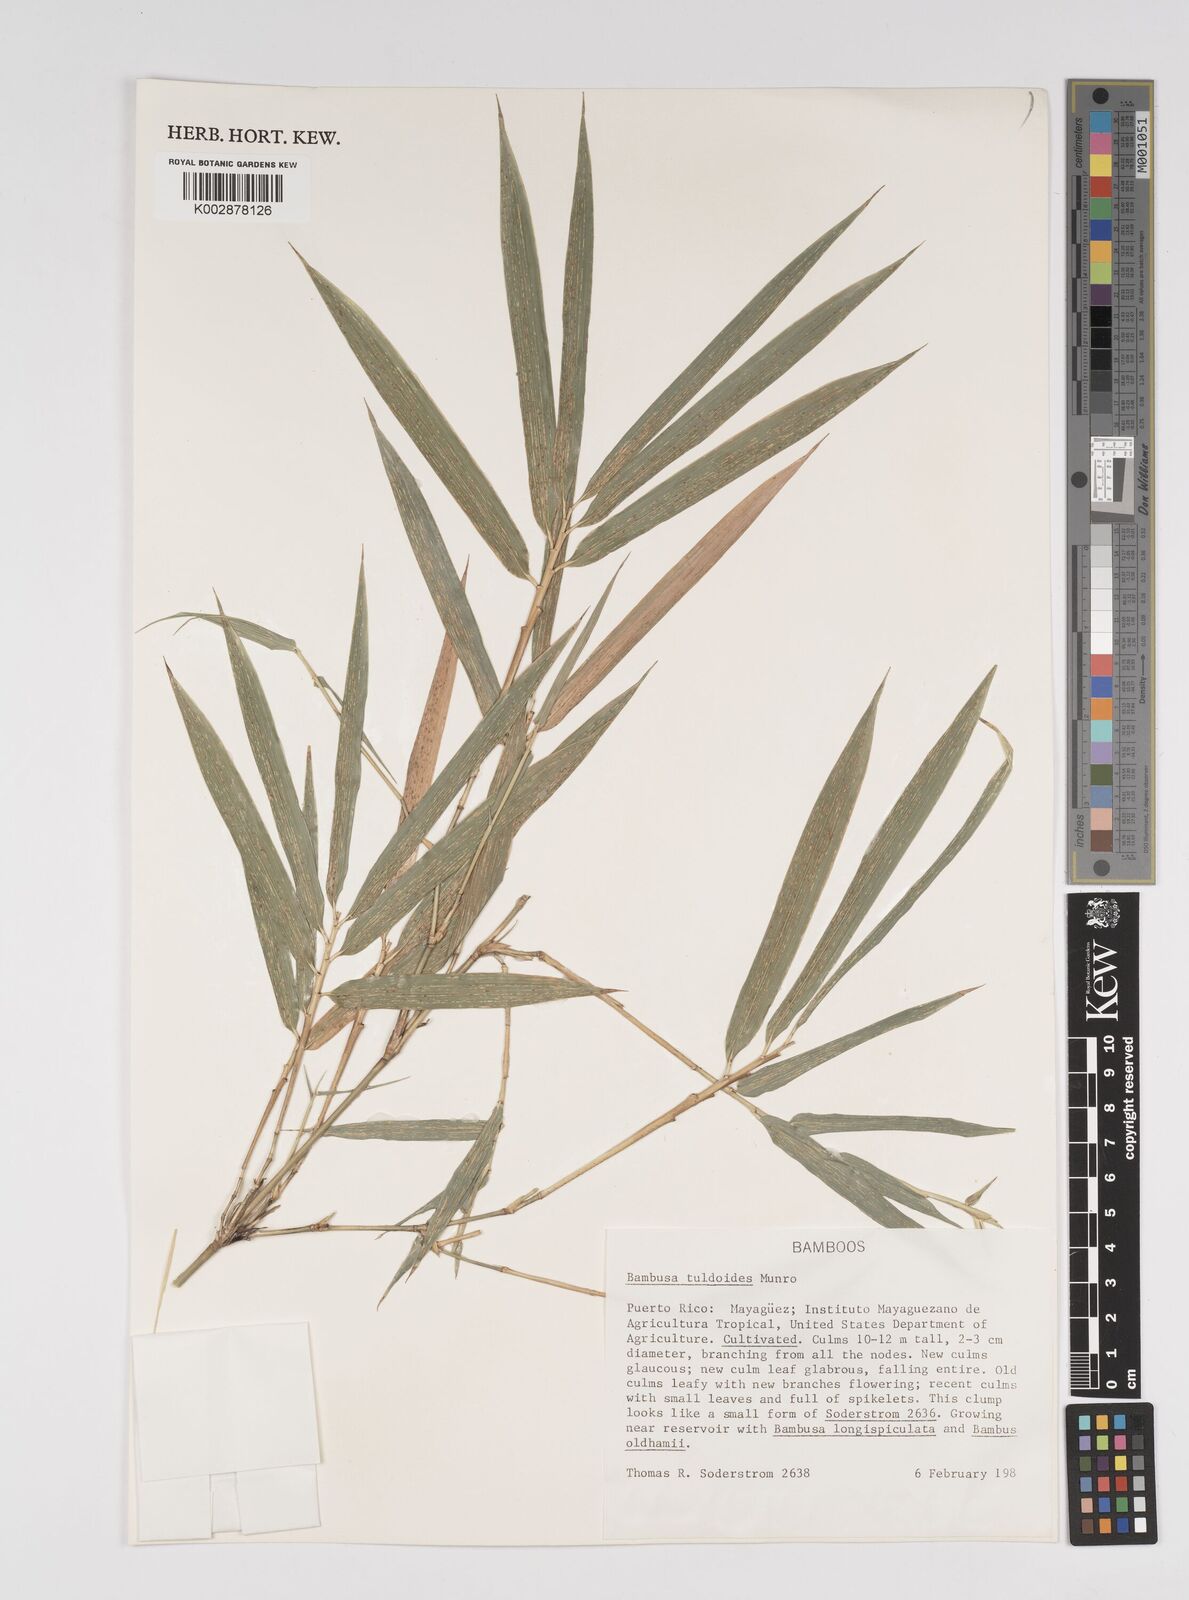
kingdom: Plantae
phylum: Tracheophyta
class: Liliopsida
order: Poales
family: Poaceae
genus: Bambusa
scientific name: Bambusa tuldoides
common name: Verdant bamboo
